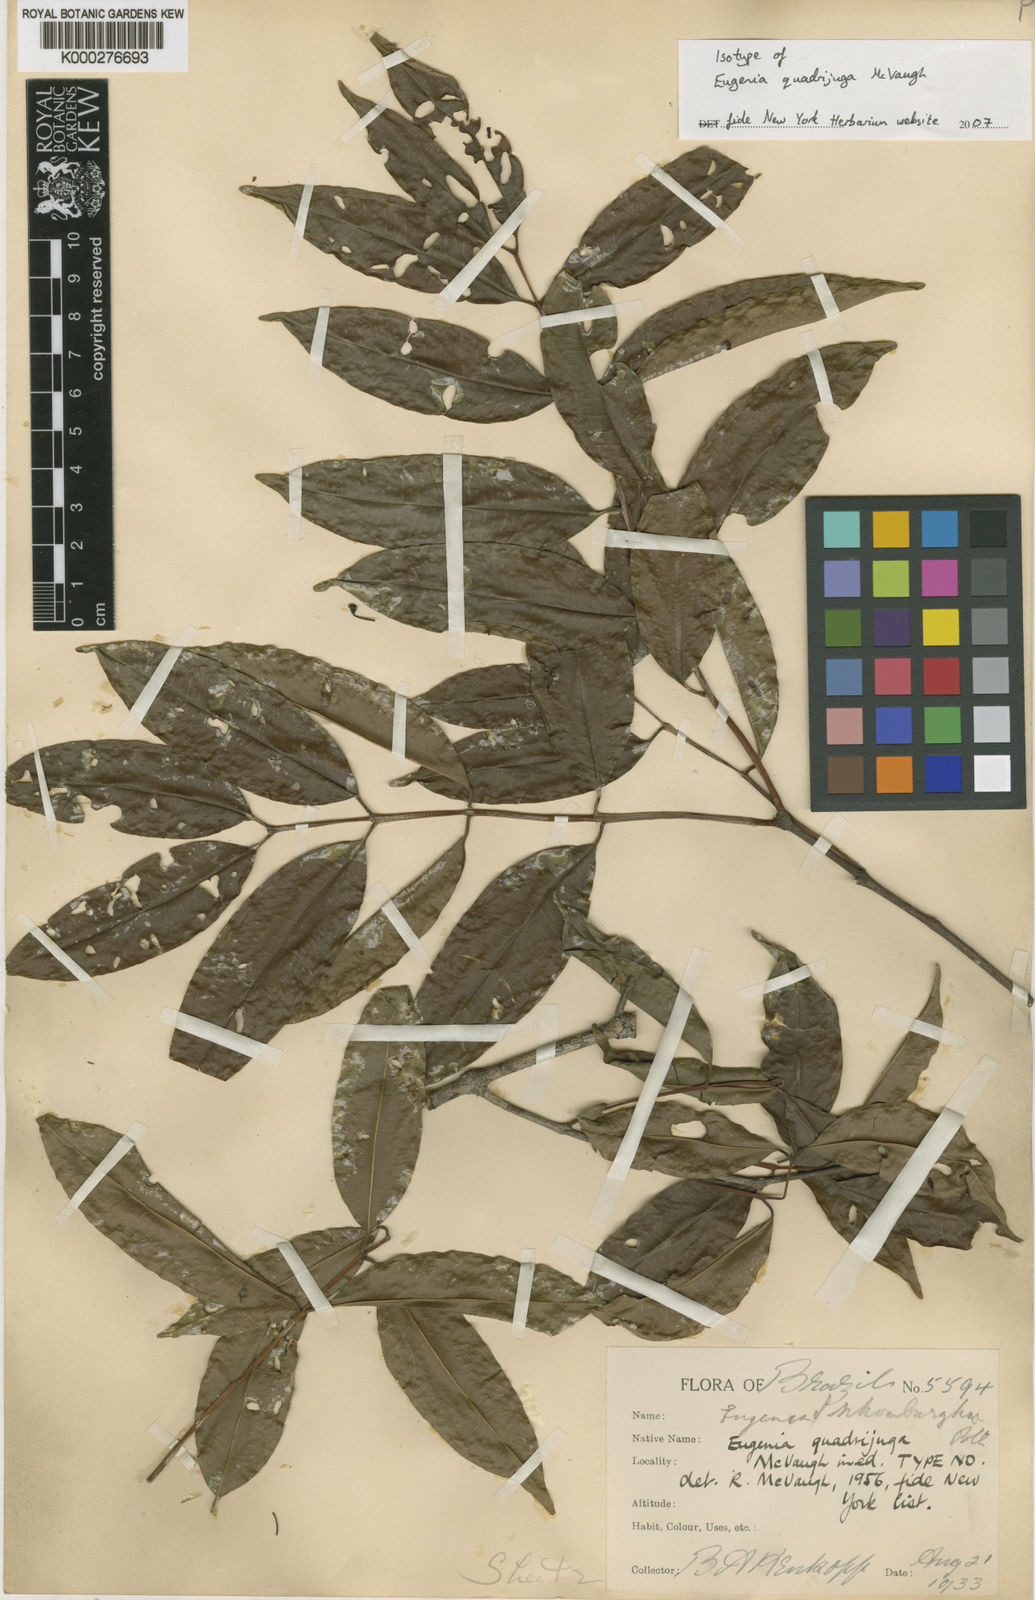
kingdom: Plantae
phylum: Tracheophyta
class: Magnoliopsida
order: Myrtales
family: Myrtaceae
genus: Eugenia
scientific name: Eugenia quadrijuga
